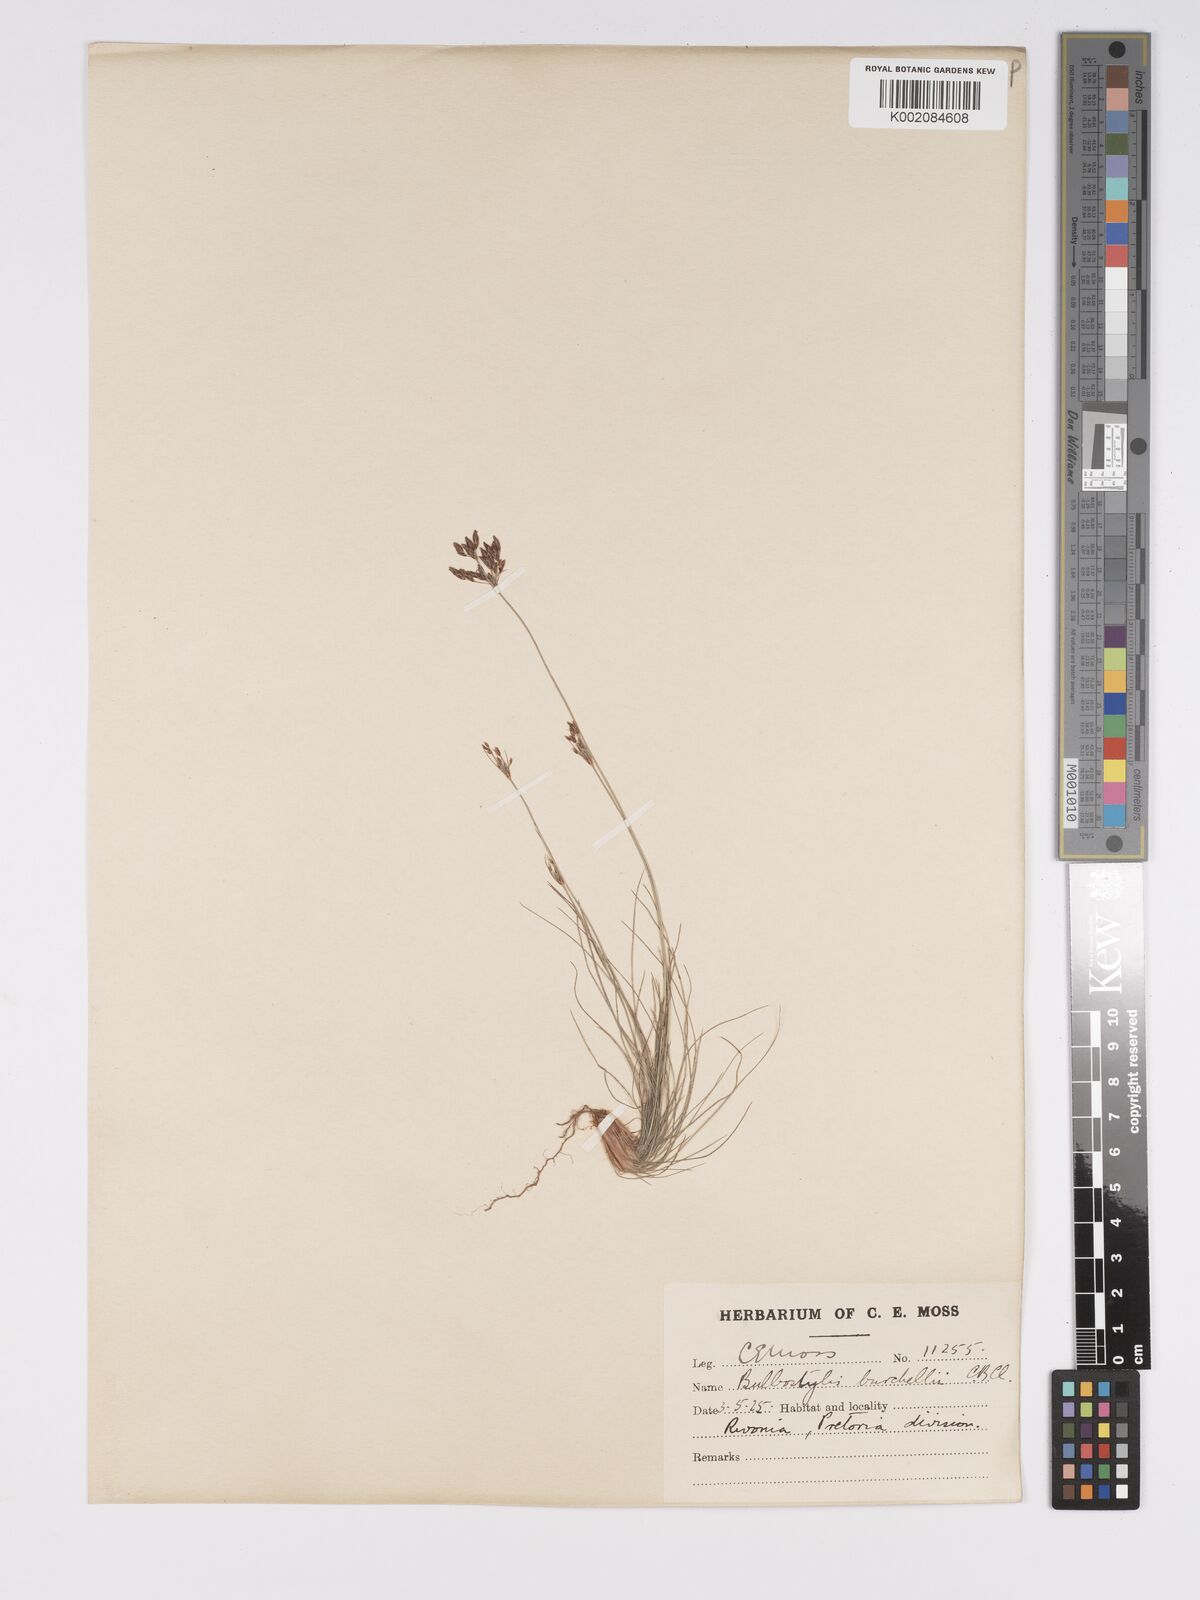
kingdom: Plantae
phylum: Tracheophyta
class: Liliopsida
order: Poales
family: Cyperaceae
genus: Bulbostylis
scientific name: Bulbostylis burchellii
